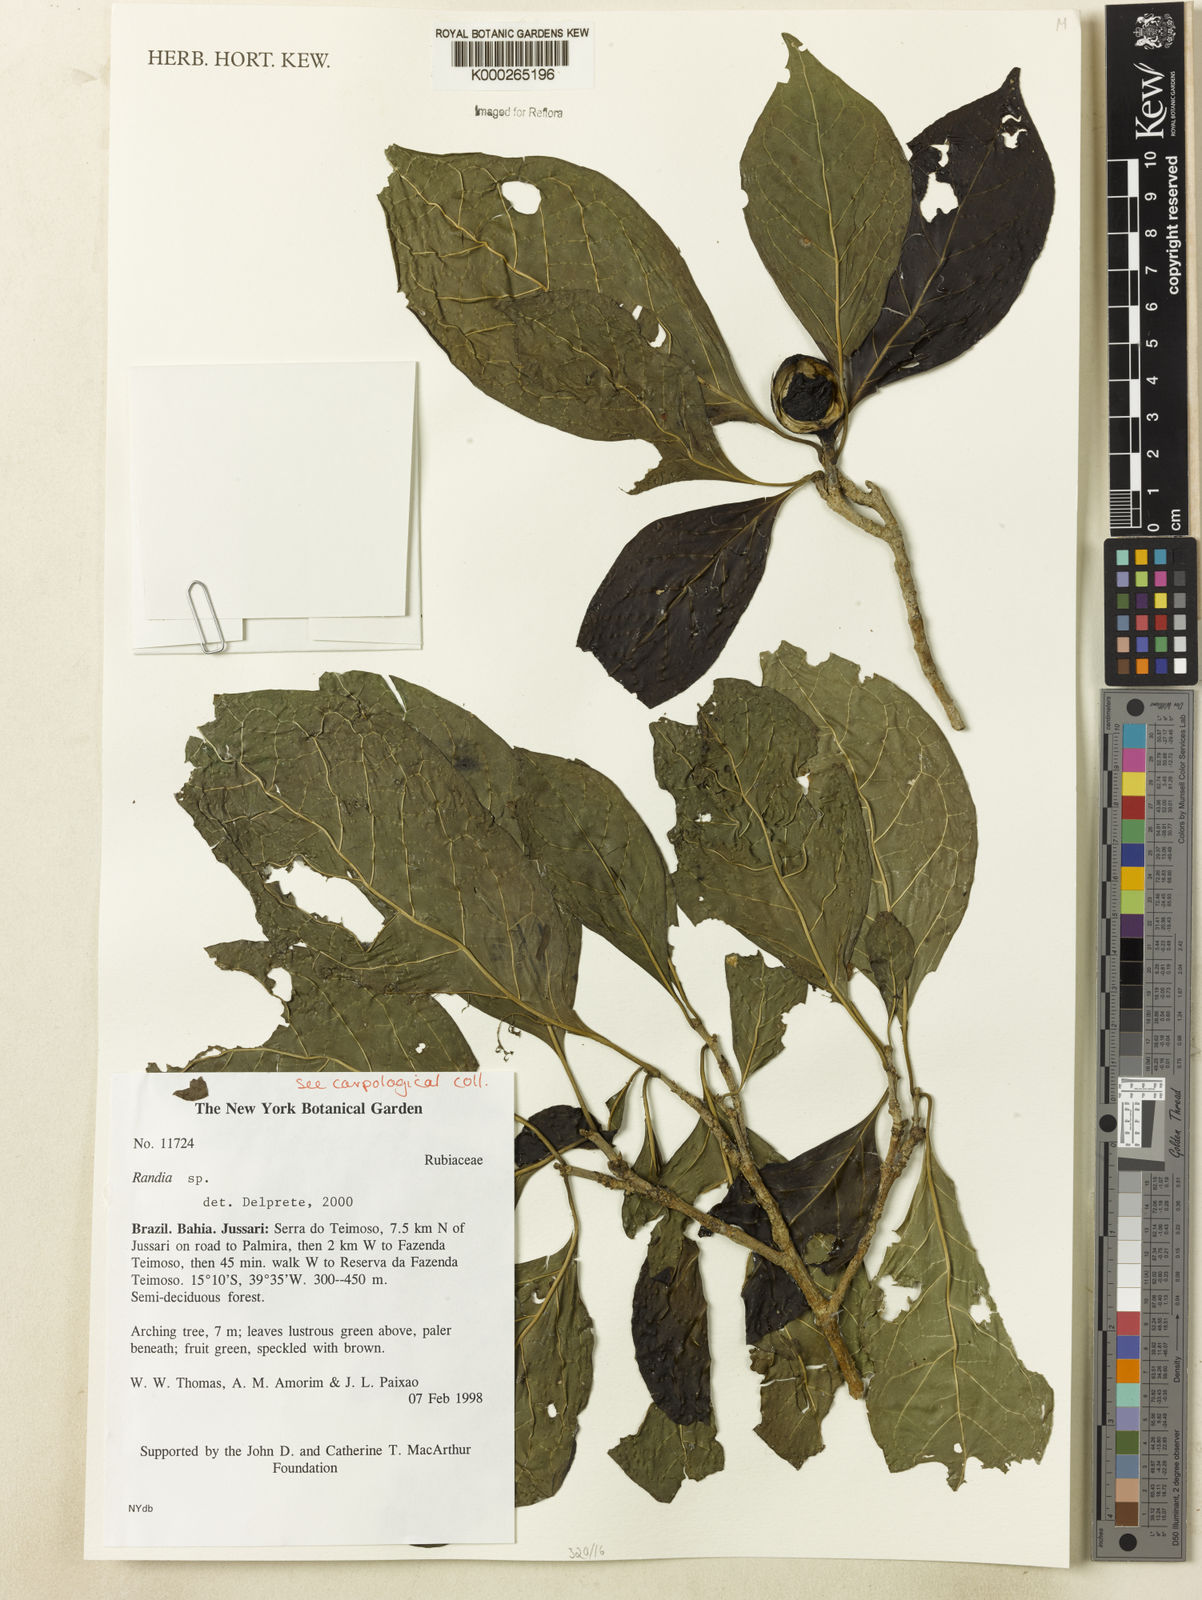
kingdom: Plantae
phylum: Tracheophyta
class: Magnoliopsida
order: Gentianales
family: Rubiaceae
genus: Randia
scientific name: Randia
